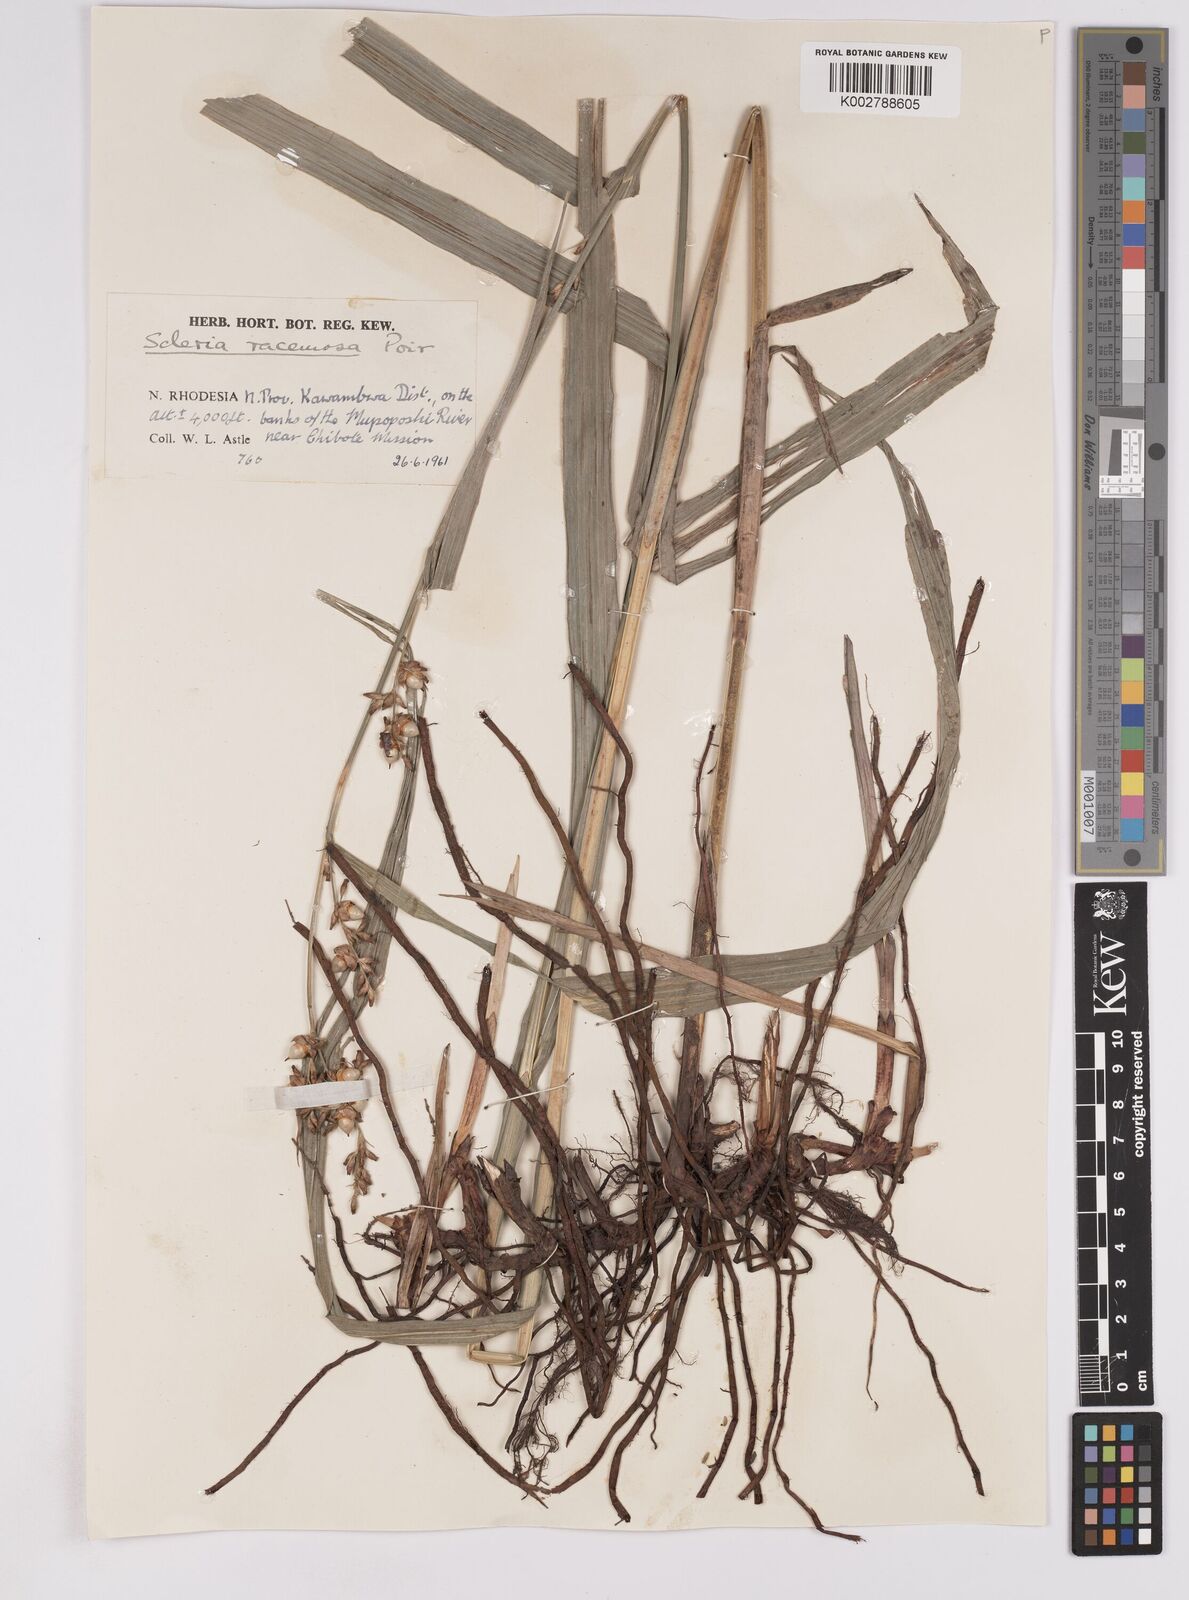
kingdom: Plantae
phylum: Tracheophyta
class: Liliopsida
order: Poales
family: Cyperaceae
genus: Scleria
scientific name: Scleria racemosa
